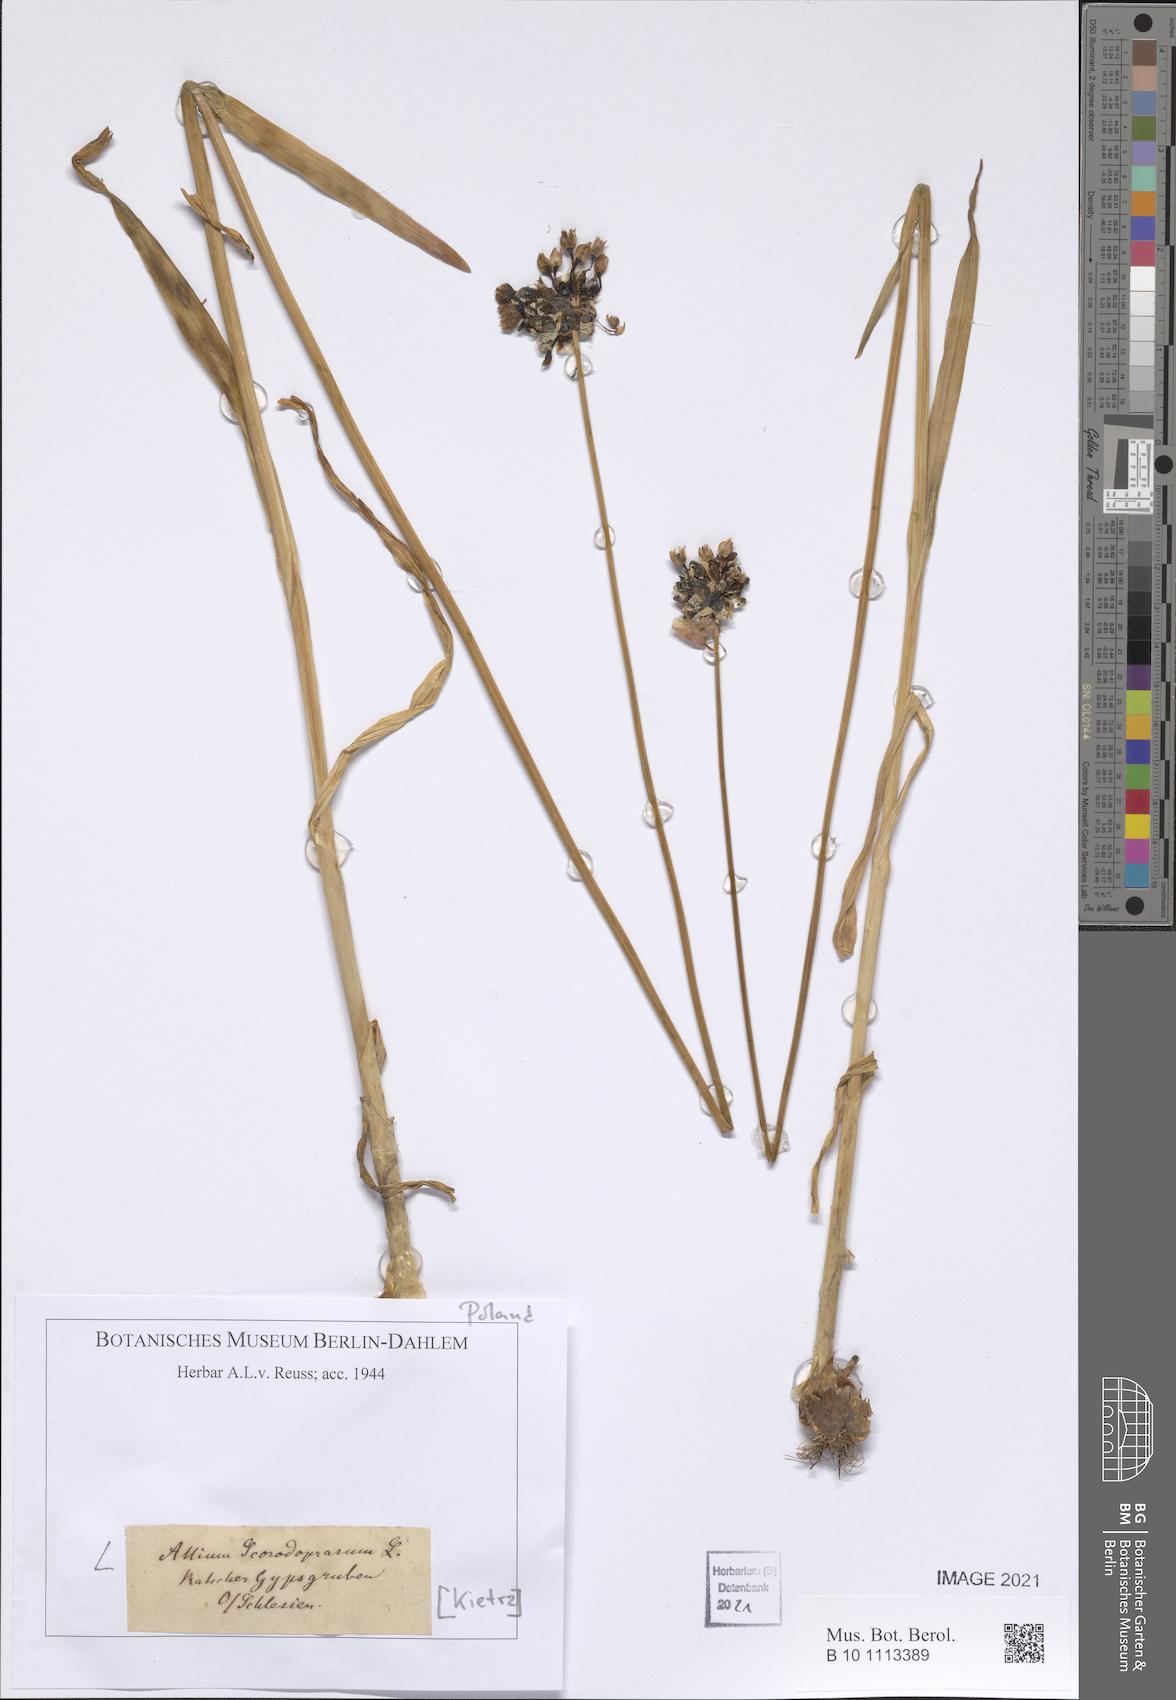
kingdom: Plantae
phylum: Tracheophyta
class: Liliopsida
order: Asparagales
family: Amaryllidaceae
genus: Allium
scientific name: Allium scorodoprasum
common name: Sand leek
